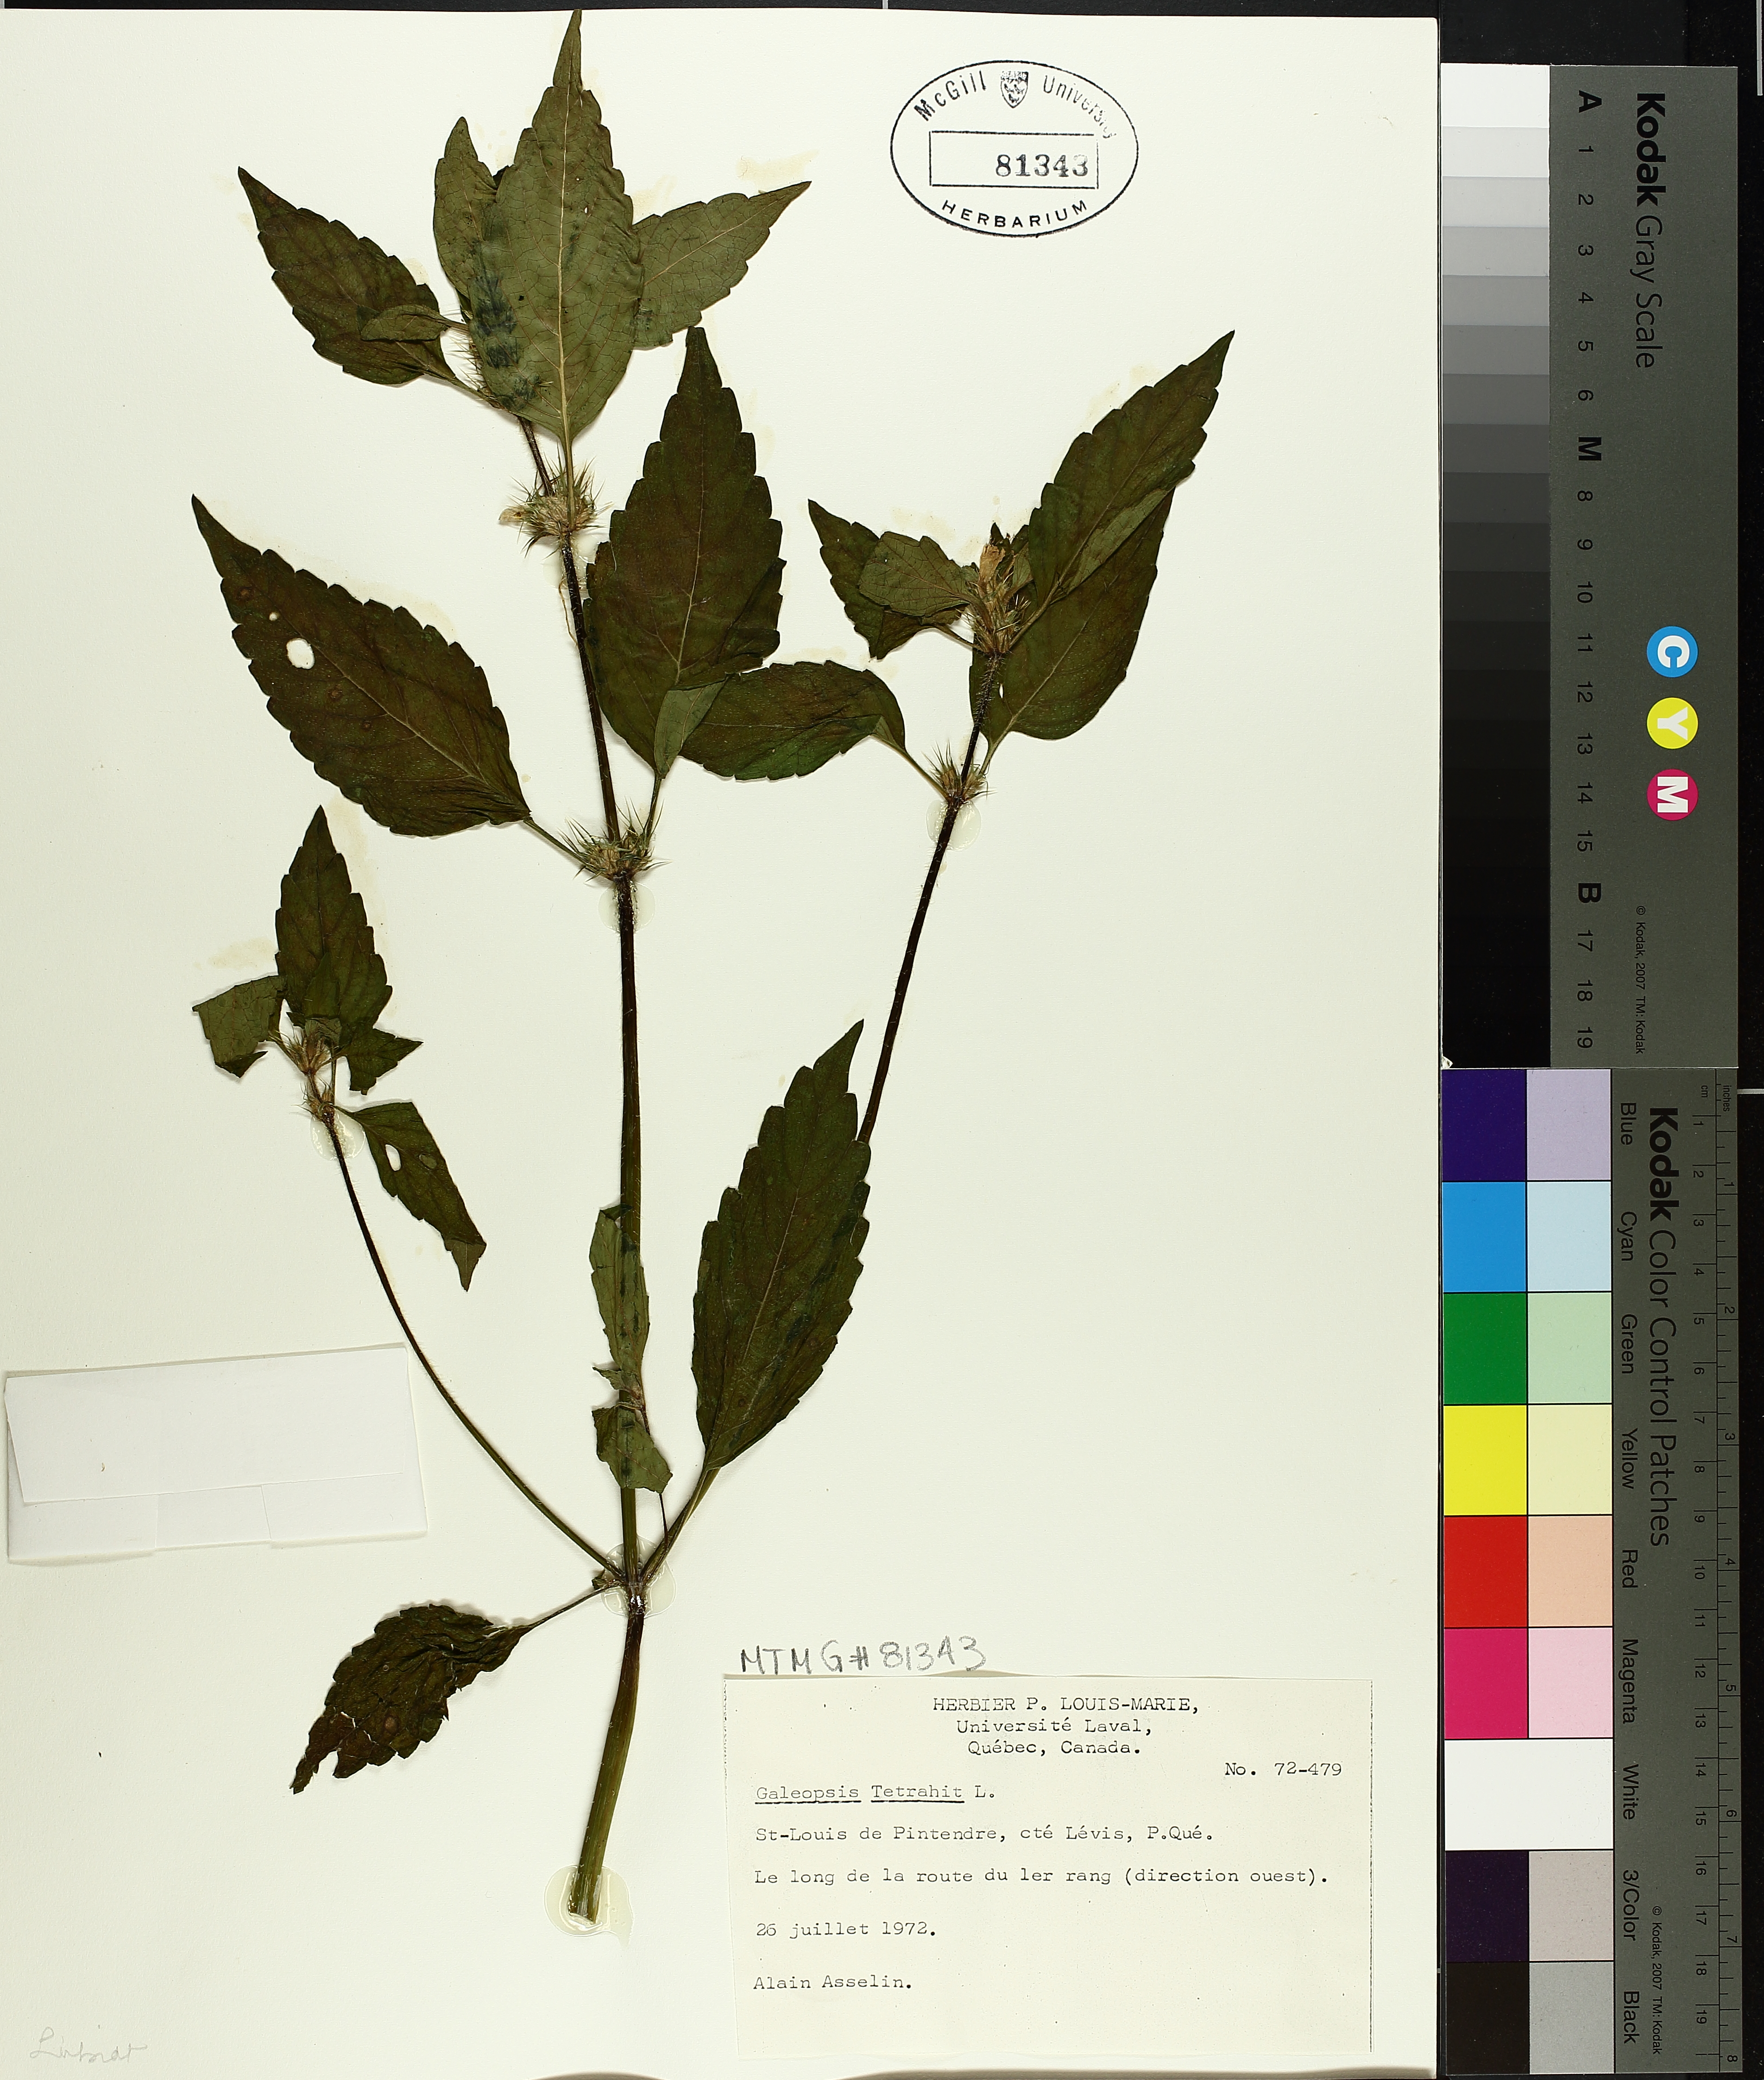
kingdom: Plantae
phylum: Tracheophyta
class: Magnoliopsida
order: Lamiales
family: Lamiaceae
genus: Galeopsis
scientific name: Galeopsis tetrahit
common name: Common hemp-nettle
